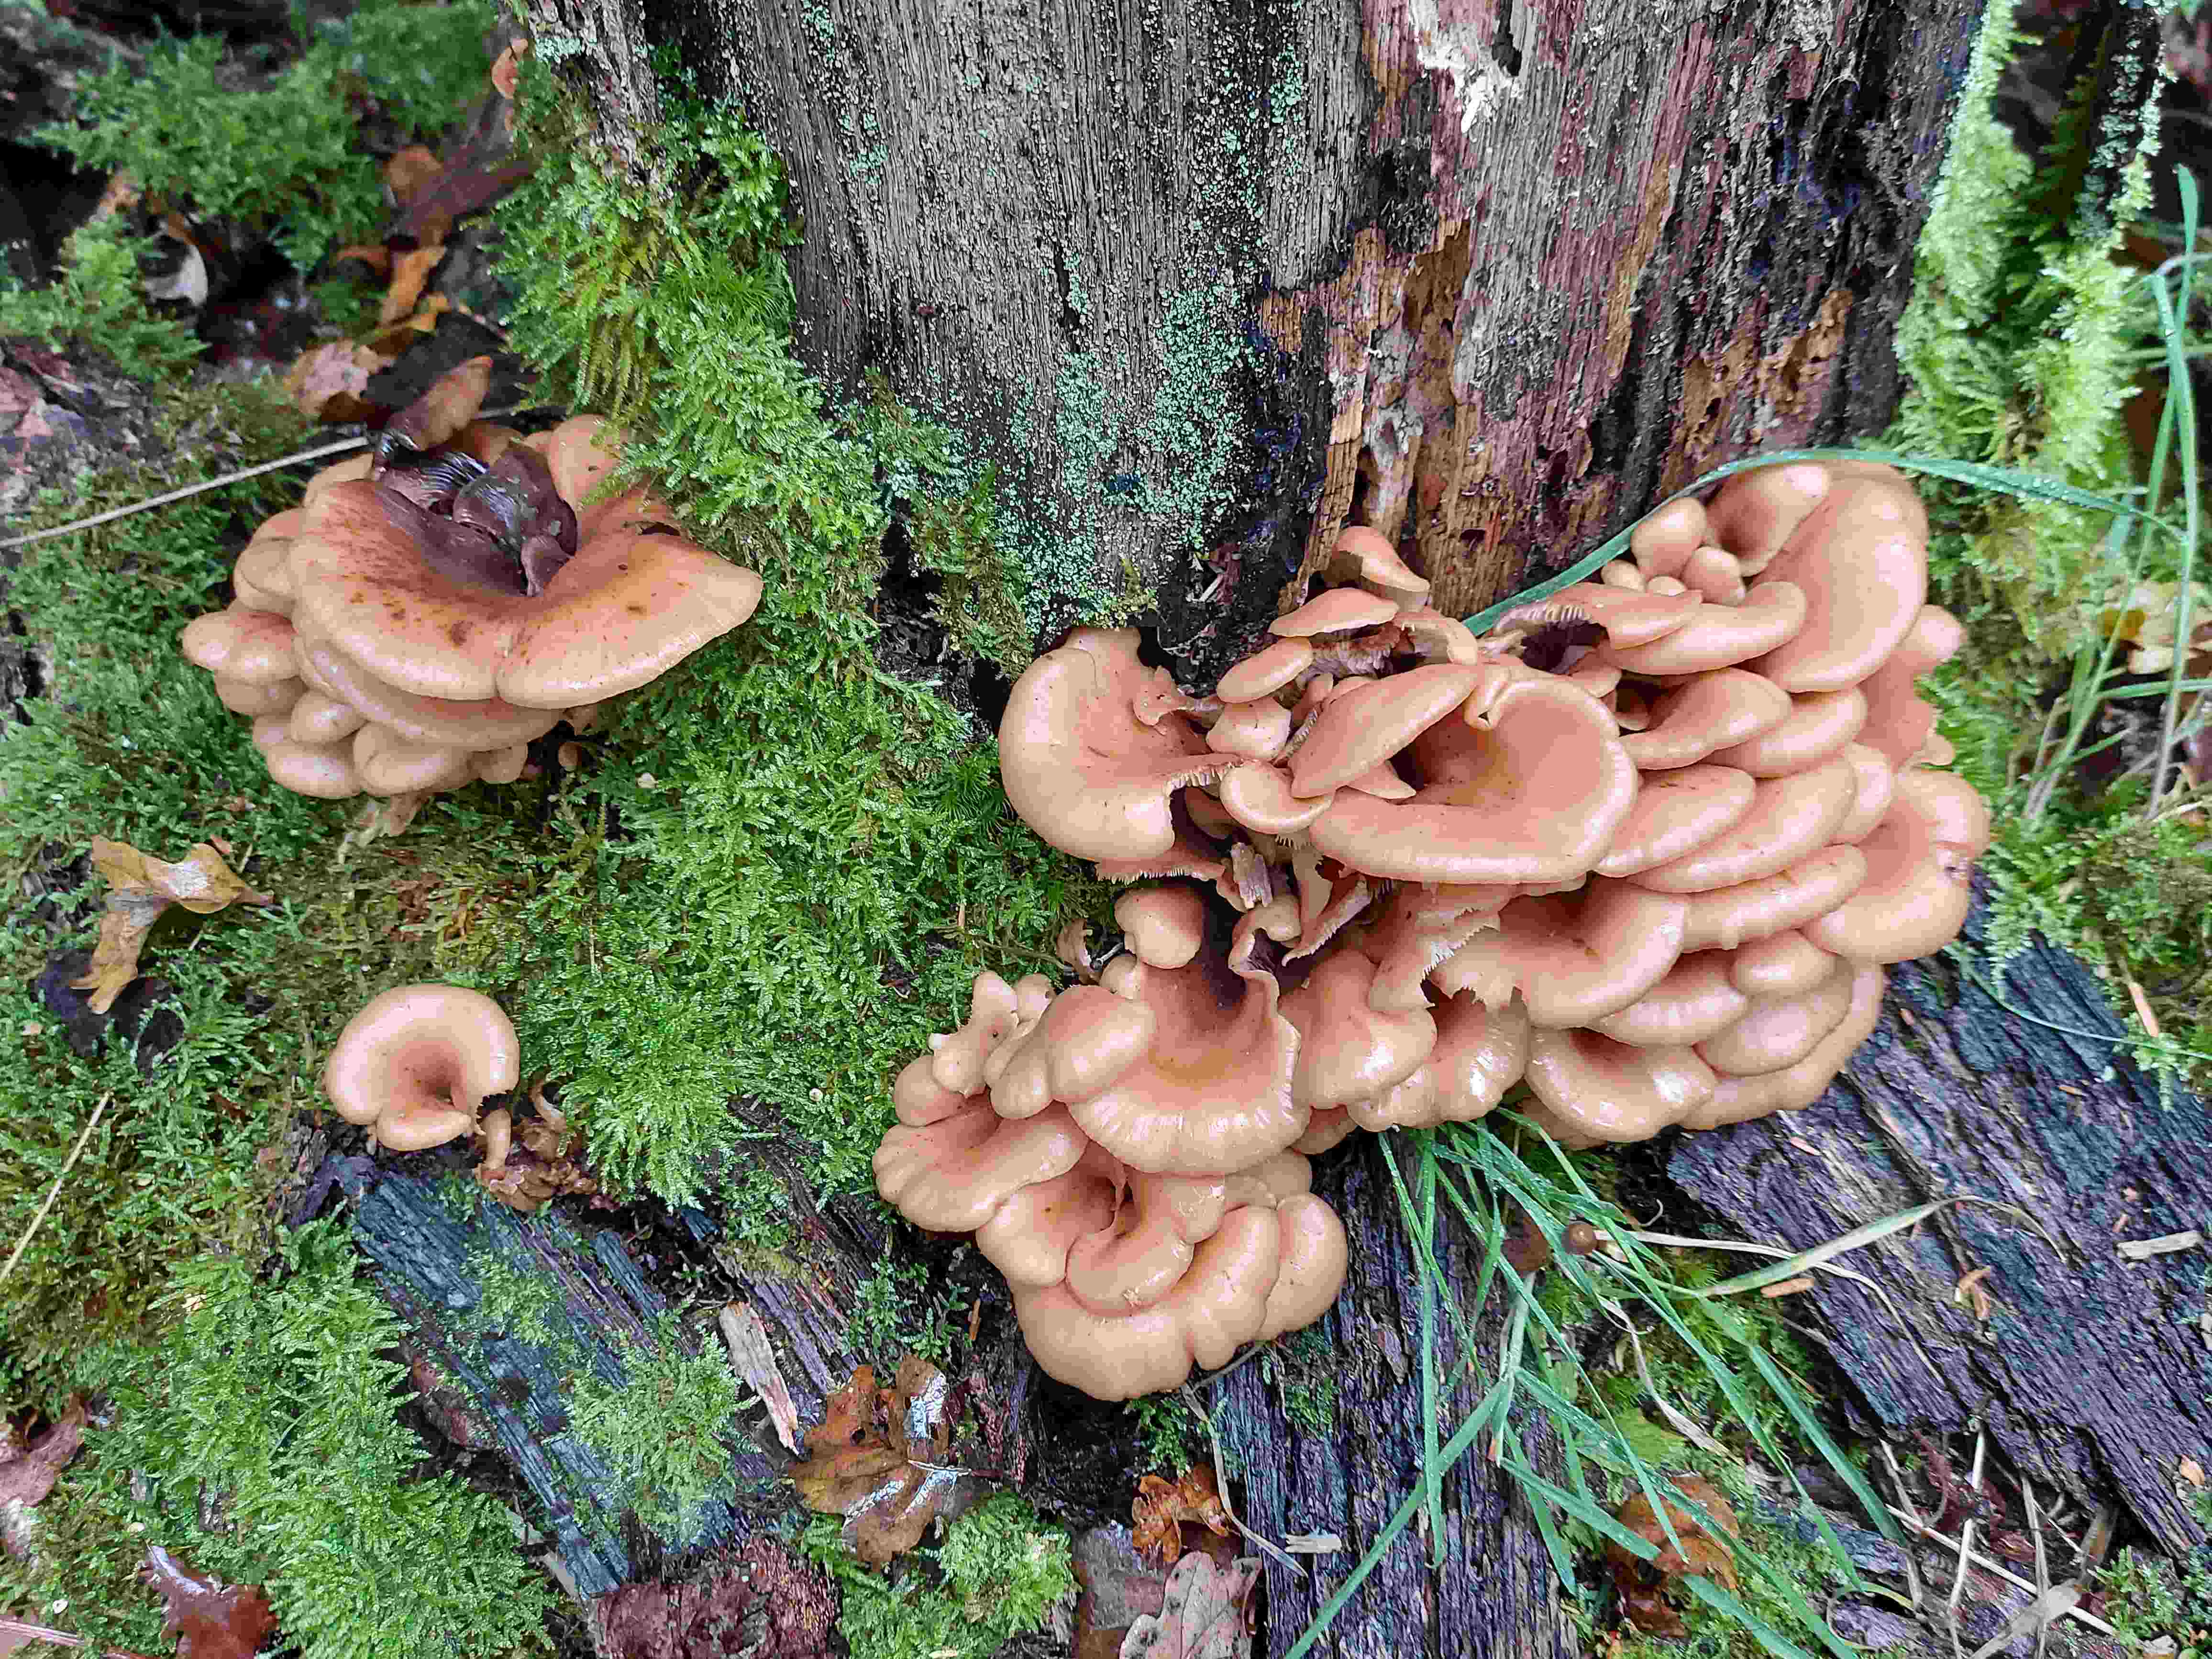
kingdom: Fungi
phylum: Basidiomycota
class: Agaricomycetes
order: Russulales
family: Auriscalpiaceae
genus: Lentinellus
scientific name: Lentinellus cochleatus
